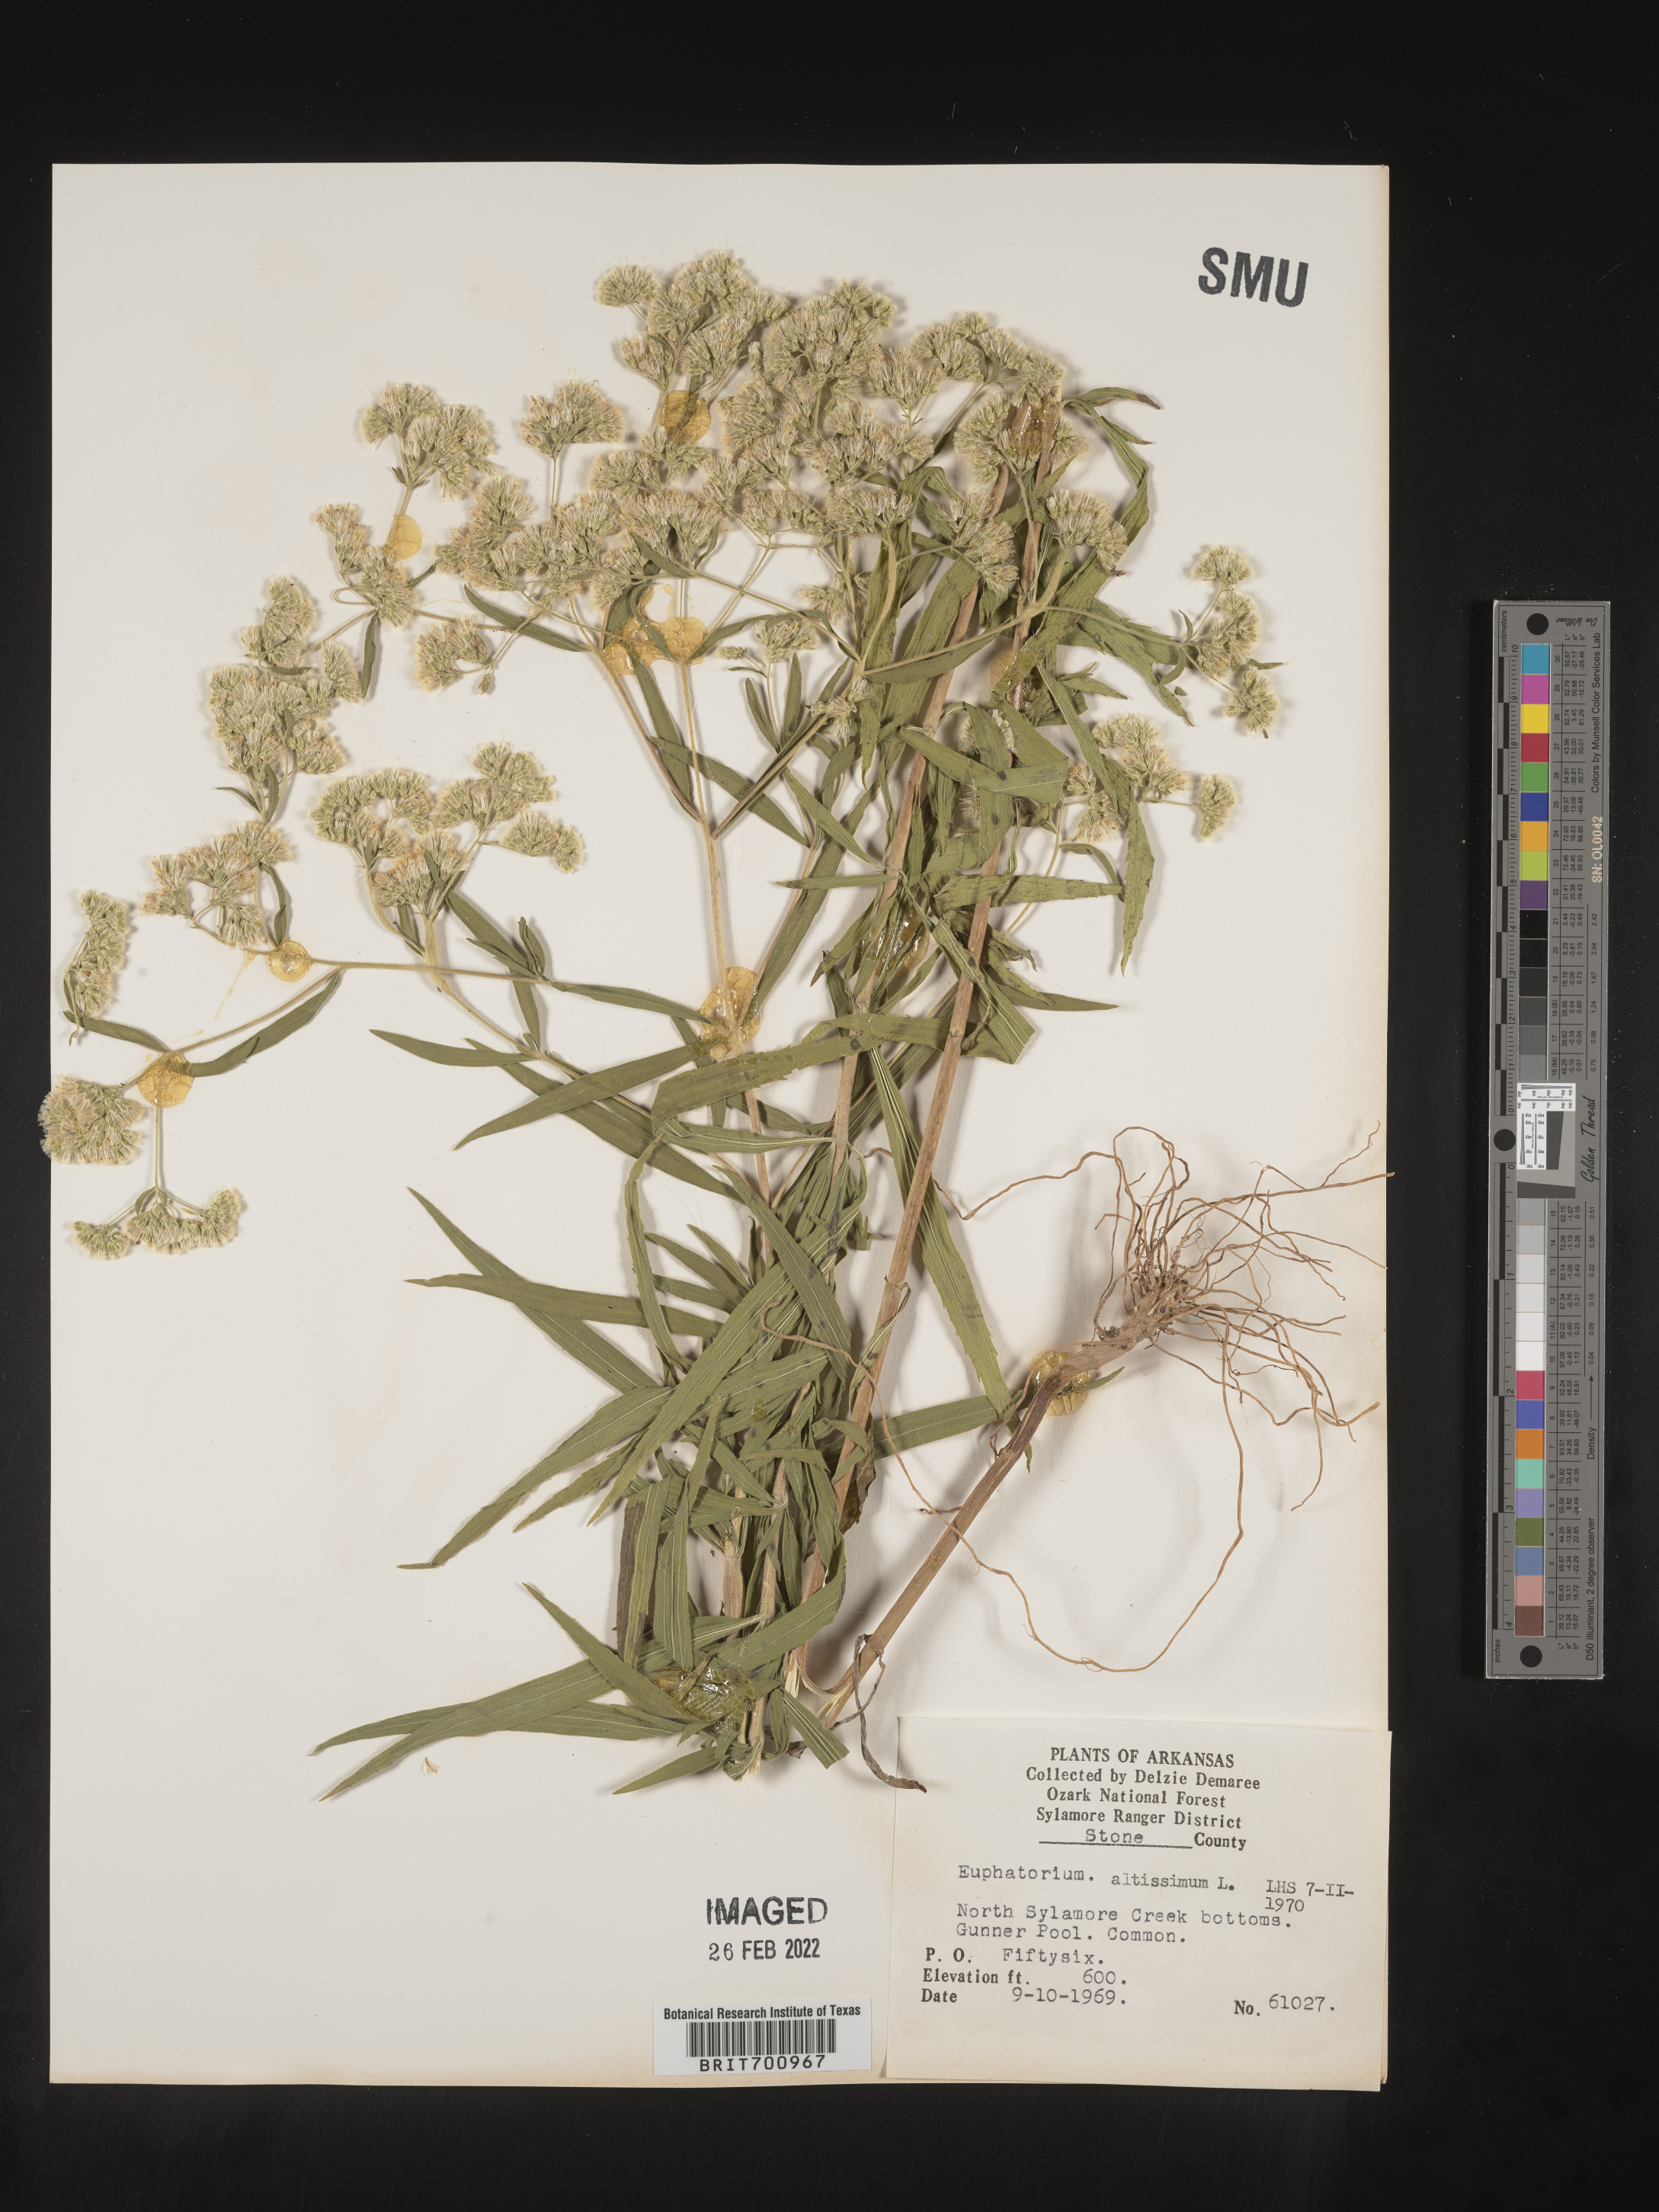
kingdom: Plantae
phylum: Tracheophyta
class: Magnoliopsida
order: Asterales
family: Asteraceae
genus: Eupatorium
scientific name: Eupatorium altissimum
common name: Tall thoroughwort
